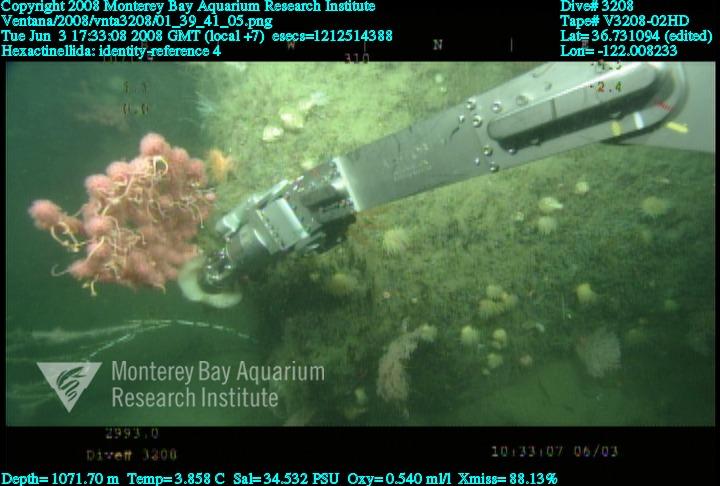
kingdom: Animalia
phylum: Porifera
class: Hexactinellida
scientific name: Hexactinellida
